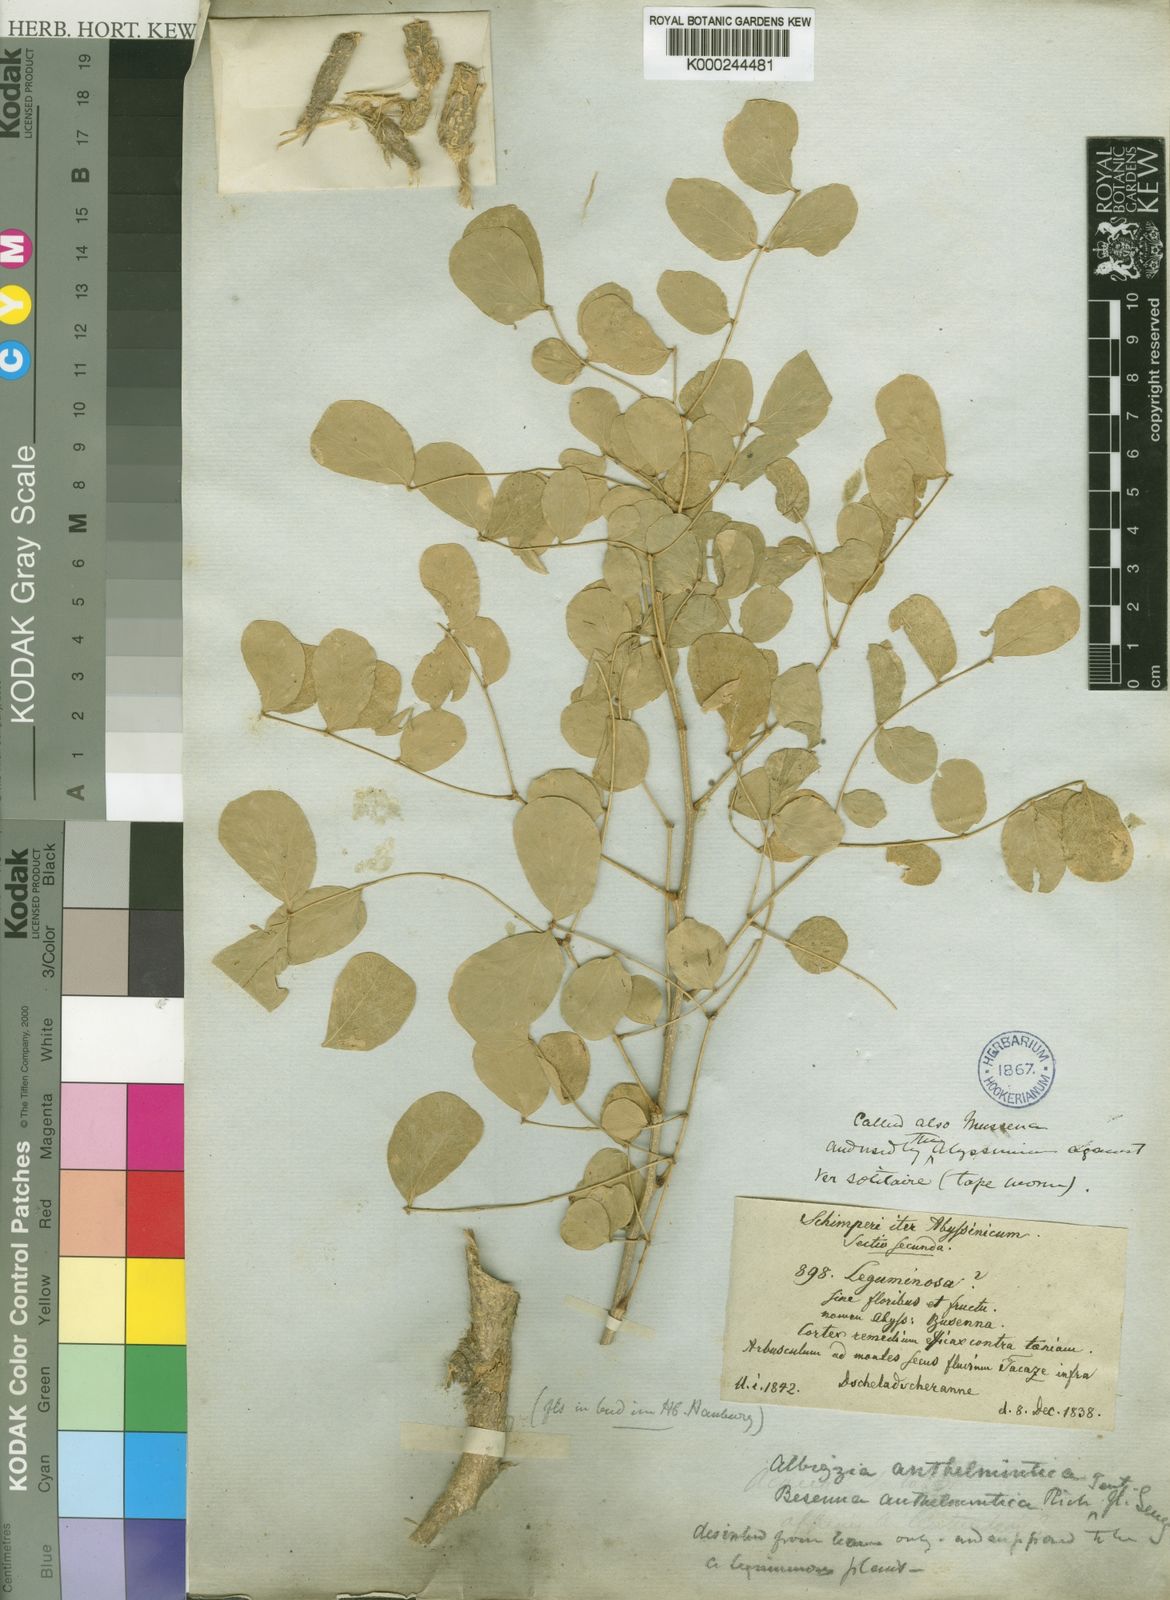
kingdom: Plantae
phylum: Tracheophyta
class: Magnoliopsida
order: Fabales
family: Fabaceae
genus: Albizia
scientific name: Albizia anthelmintica
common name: Worm-bark false-thorn
